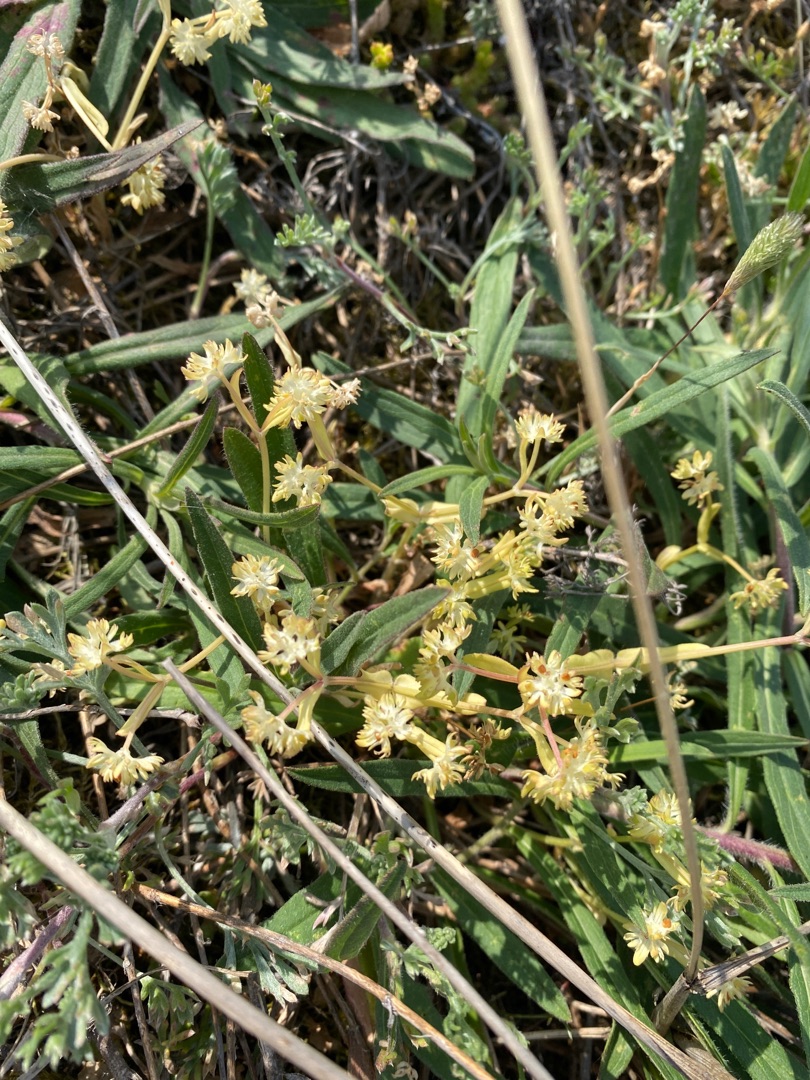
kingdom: Plantae
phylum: Tracheophyta
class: Magnoliopsida
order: Dipsacales
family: Caprifoliaceae
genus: Valerianella
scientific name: Valerianella locusta
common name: Tandfri vårsalat
